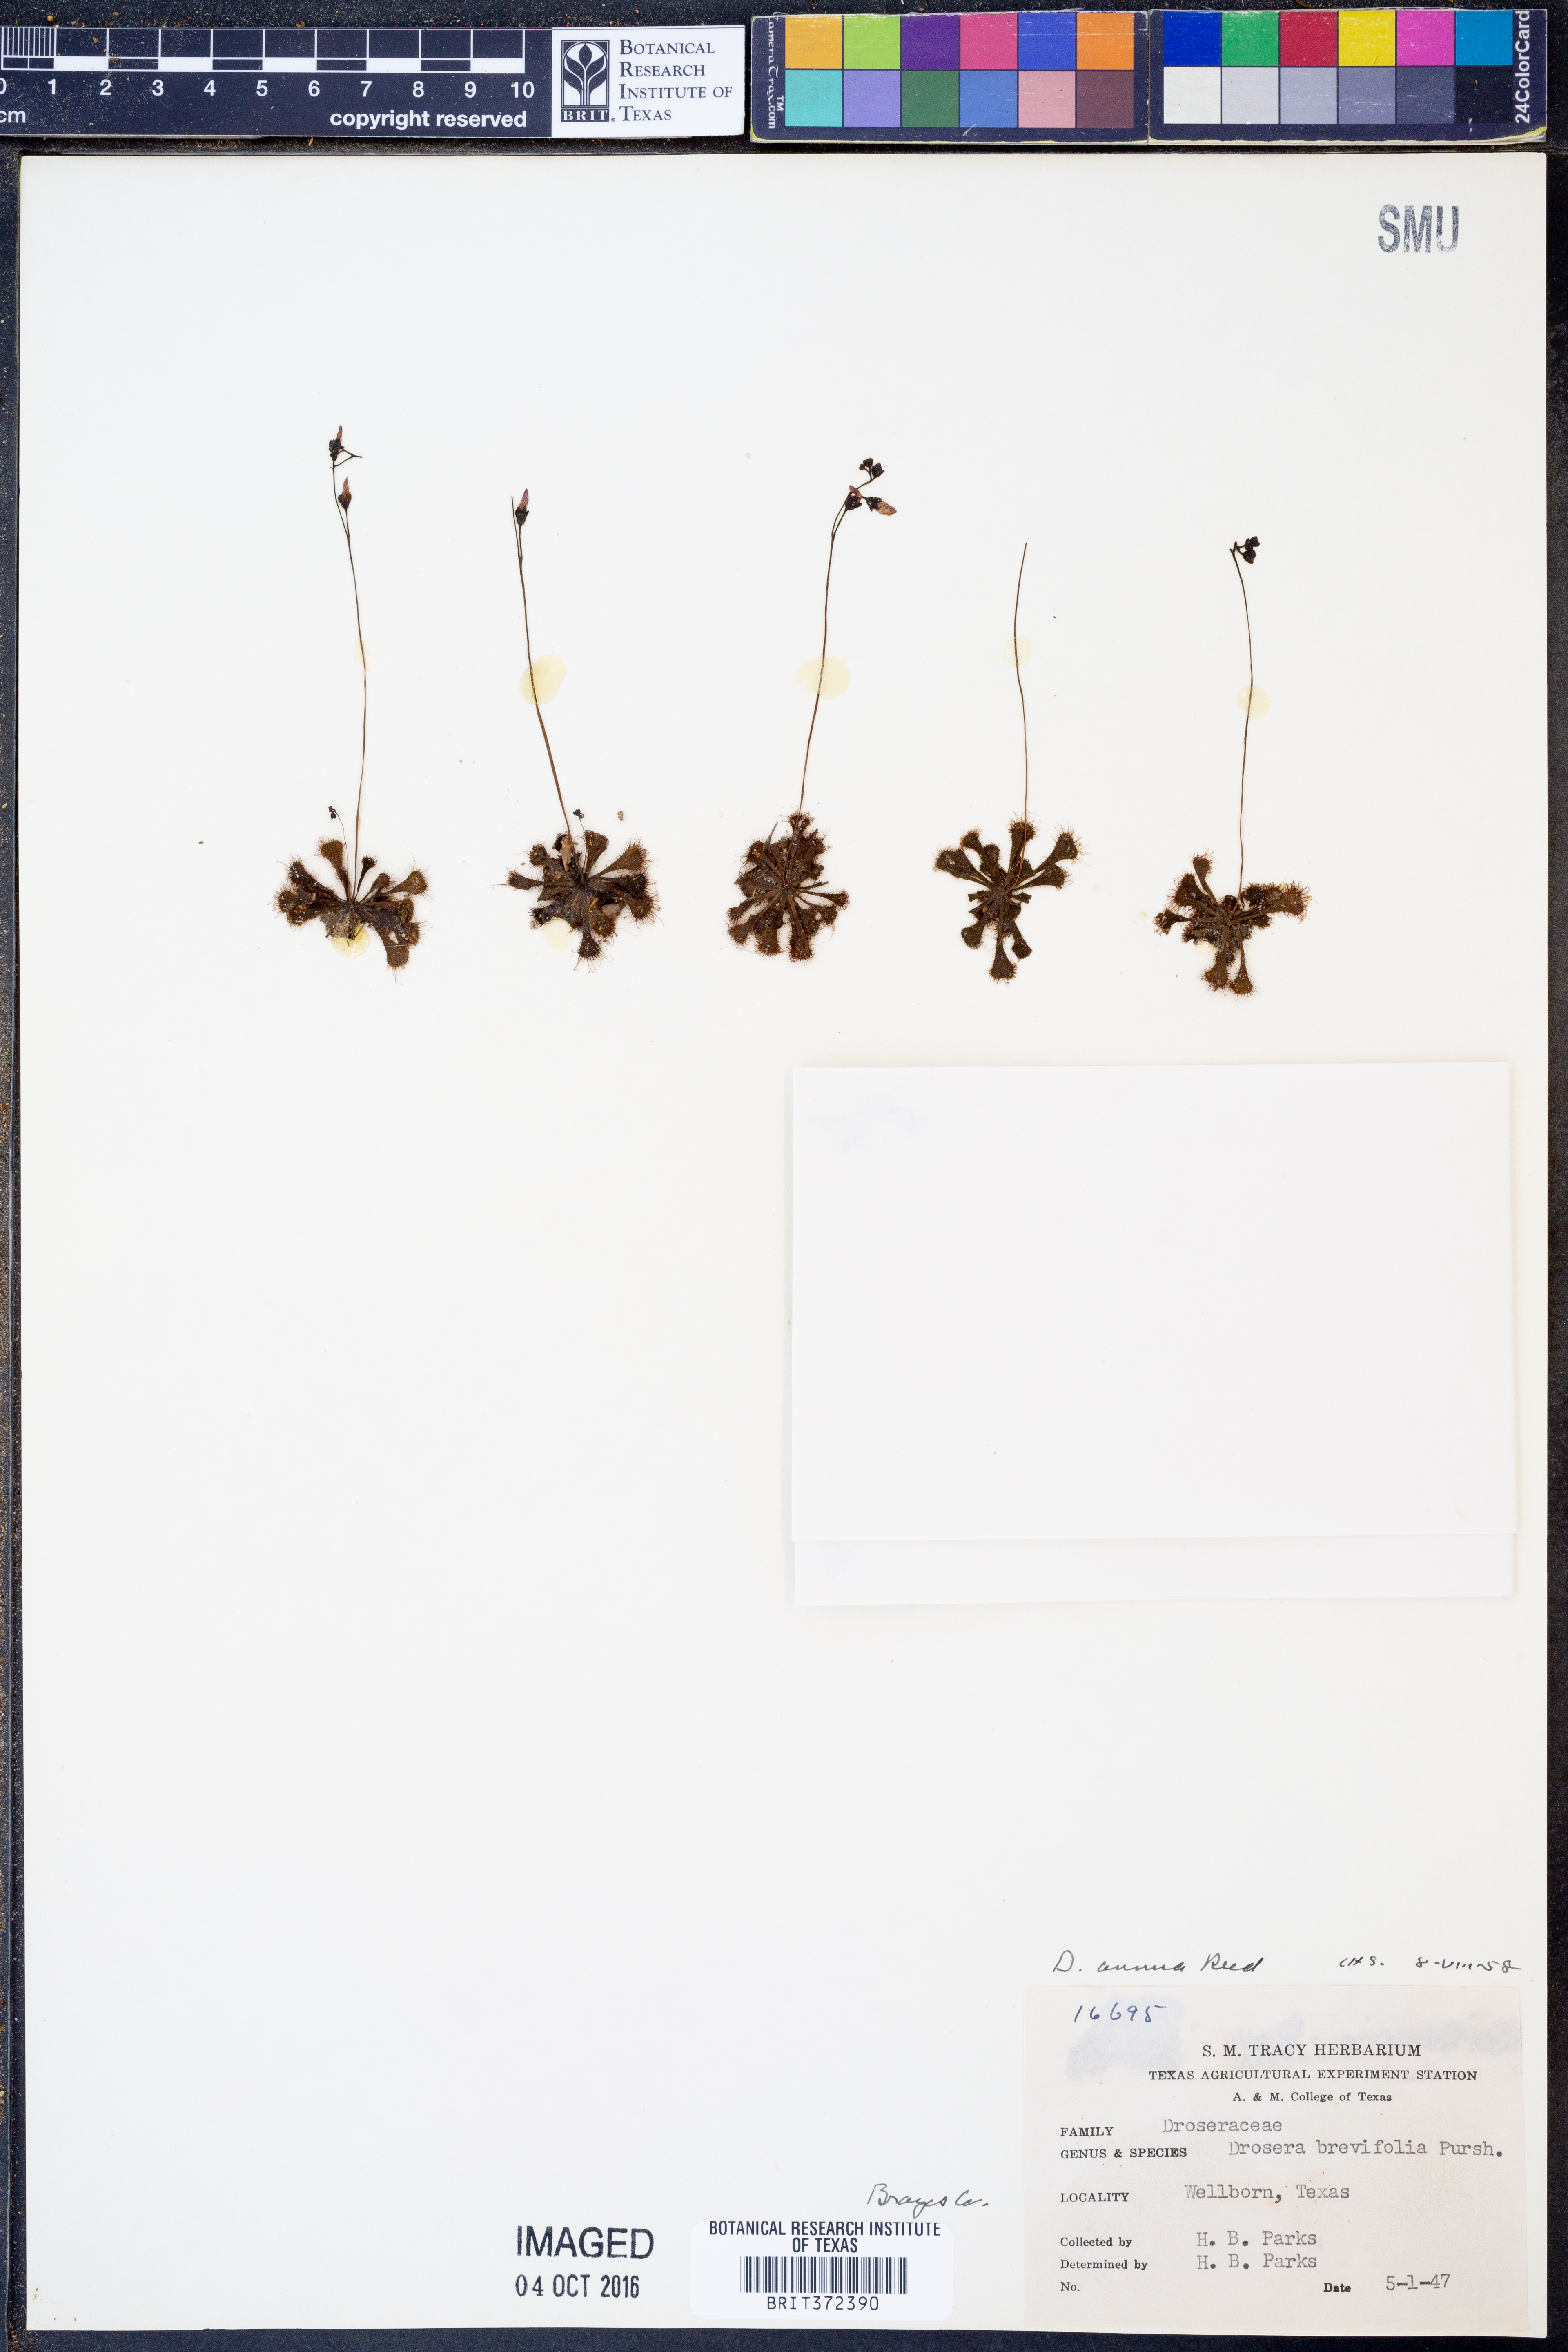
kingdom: Plantae
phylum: Tracheophyta
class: Magnoliopsida
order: Caryophyllales
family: Droseraceae
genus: Drosera
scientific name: Drosera brevifolia
